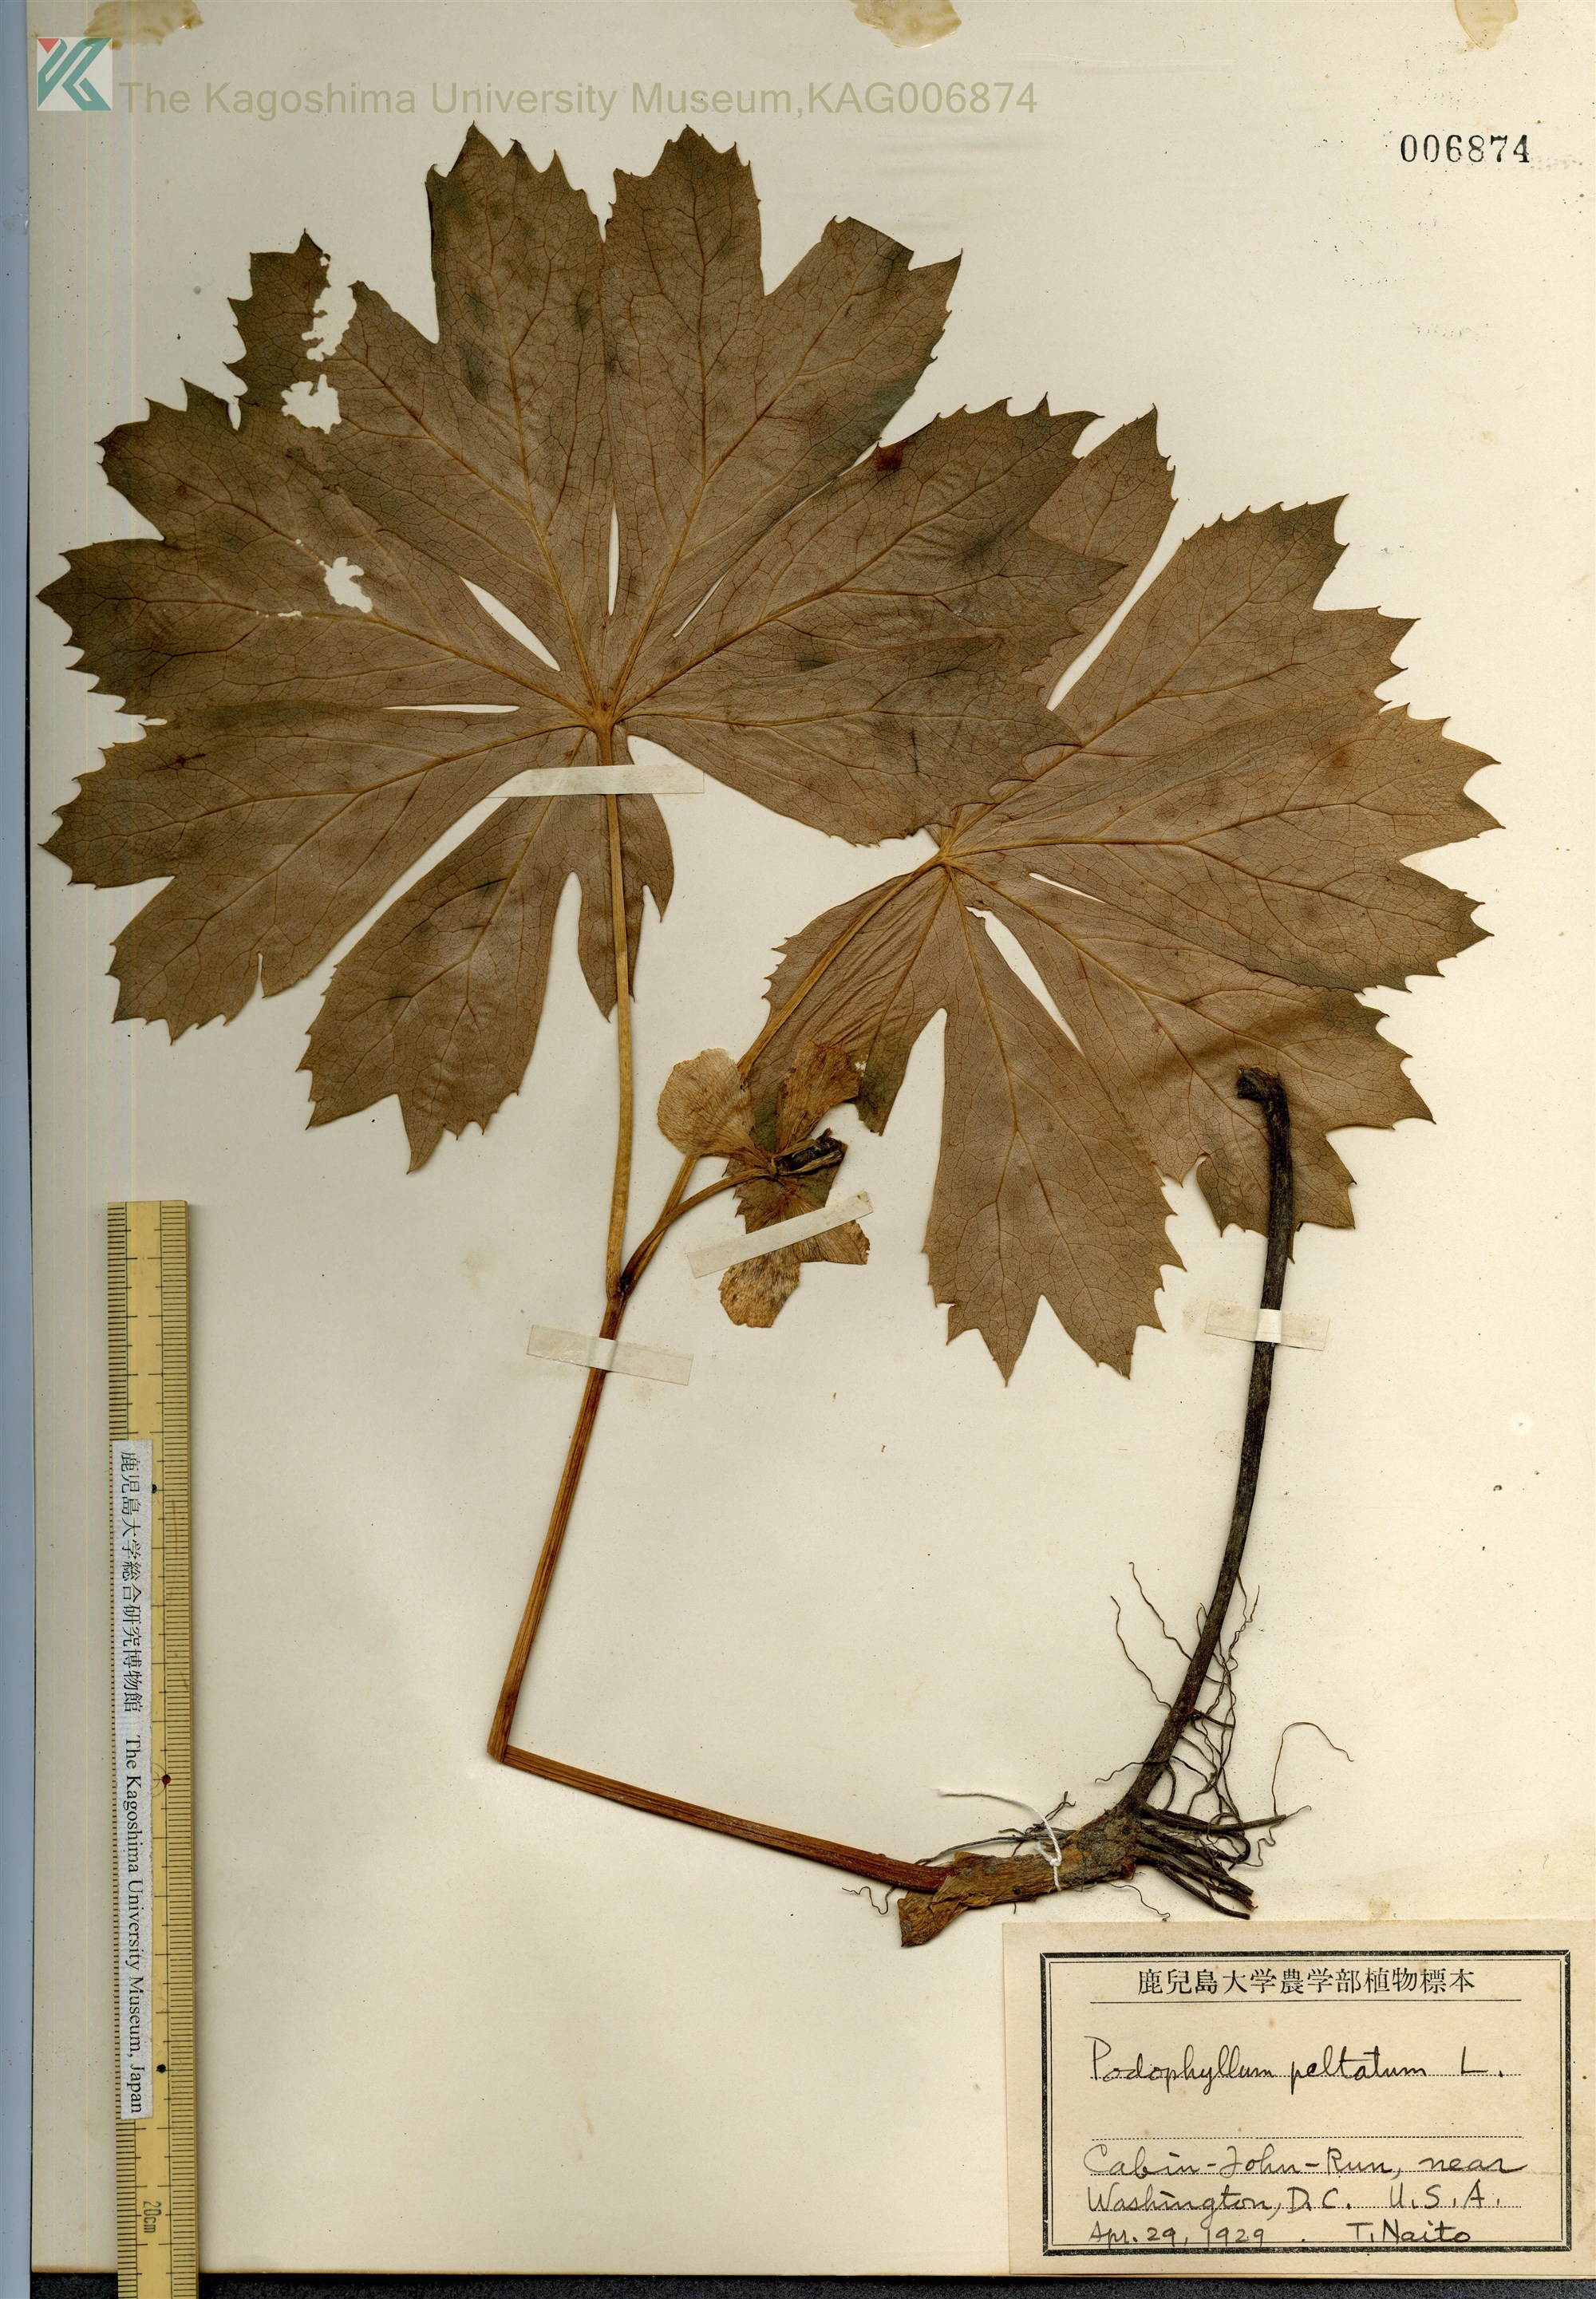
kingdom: Plantae
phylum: Tracheophyta
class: Magnoliopsida
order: Ranunculales
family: Berberidaceae
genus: Podophyllum
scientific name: Podophyllum peltatum
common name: Wild mandrake
